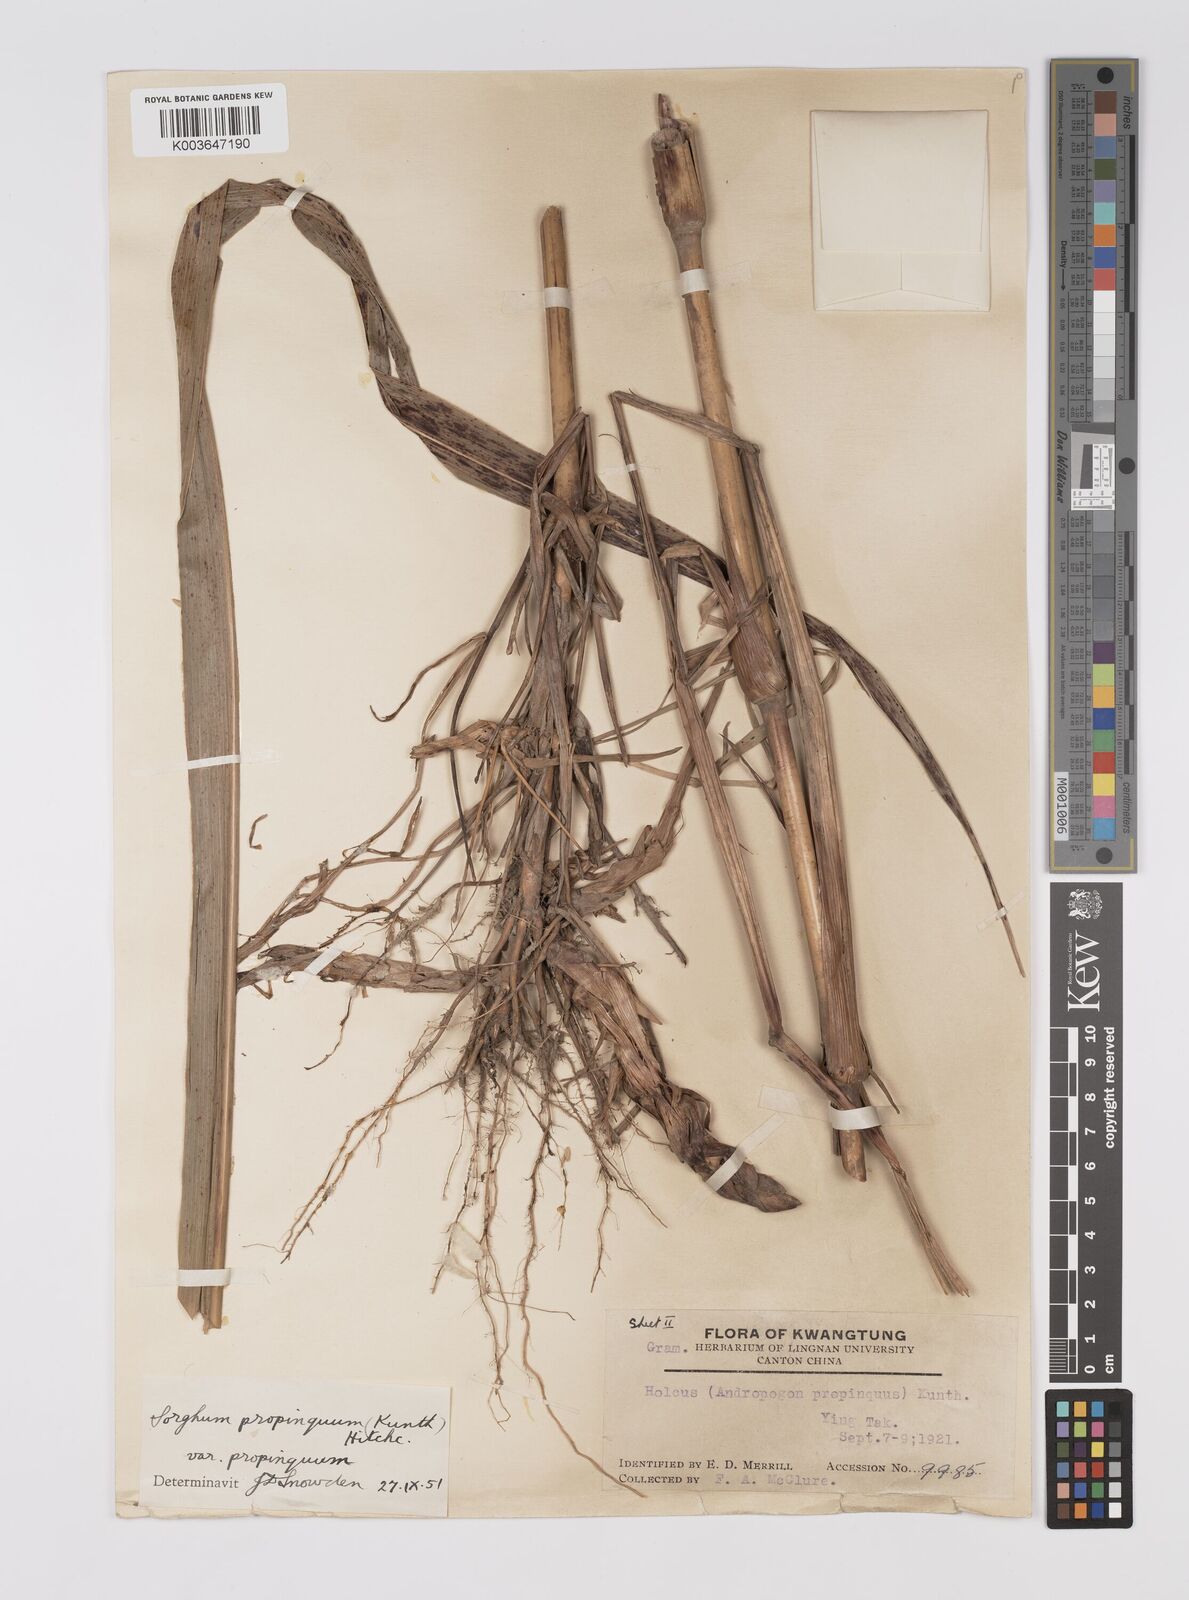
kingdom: Plantae
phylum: Tracheophyta
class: Liliopsida
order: Poales
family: Poaceae
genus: Sorghum
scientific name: Sorghum propinquum
